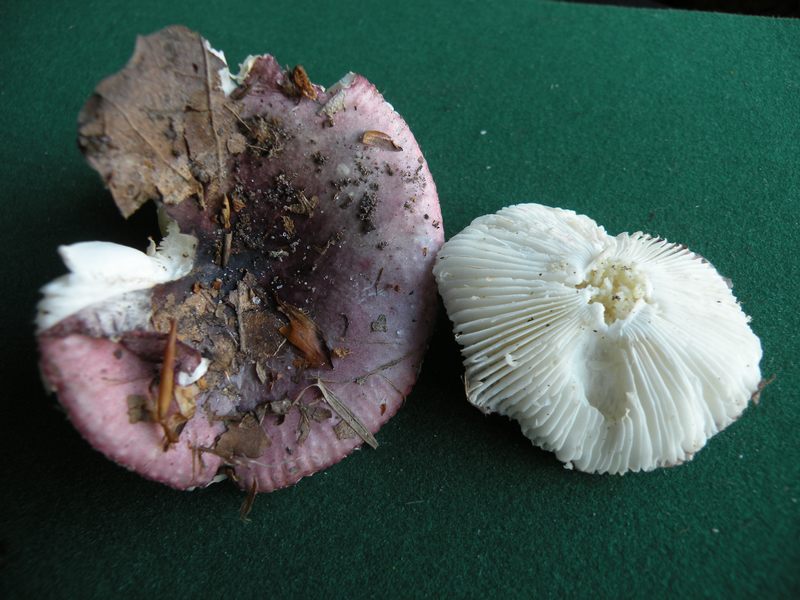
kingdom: Fungi
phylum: Basidiomycota
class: Agaricomycetes
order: Russulales
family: Russulaceae
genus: Russula
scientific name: Russula fragilis
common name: Fragile brittlegill
